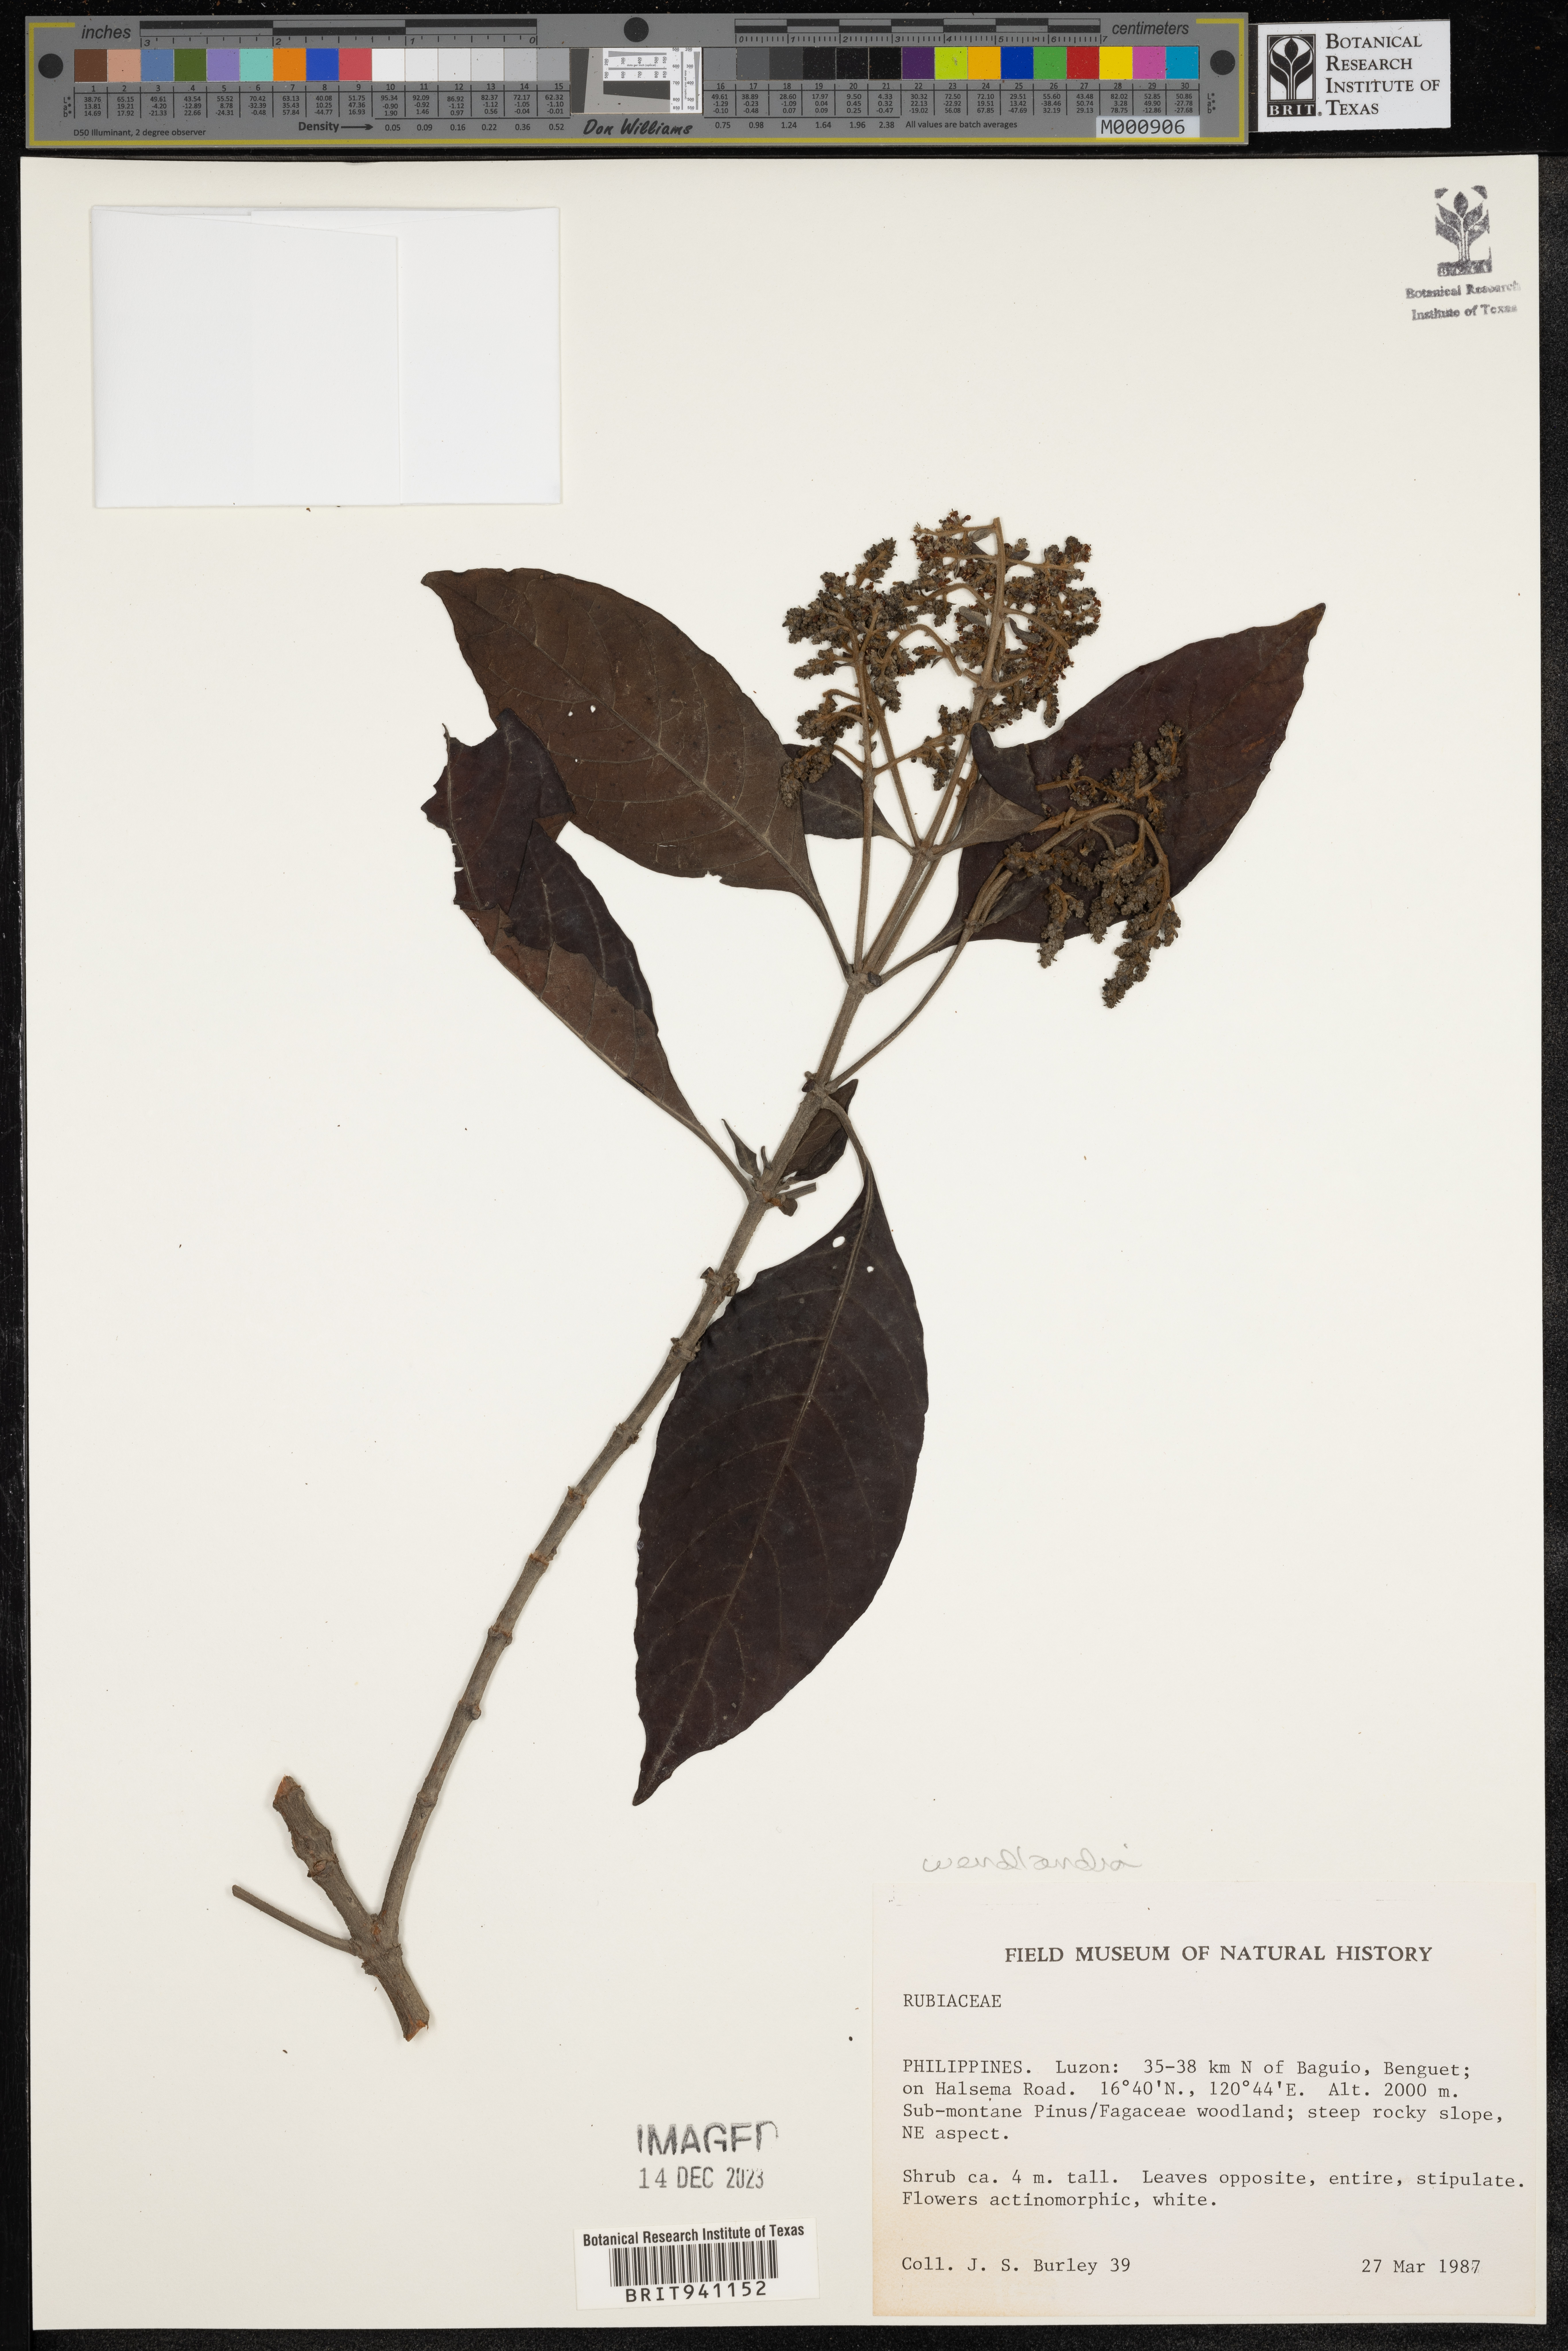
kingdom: Plantae
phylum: Tracheophyta
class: Magnoliopsida
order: Gentianales
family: Rubiaceae
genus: Wendlandia
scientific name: Wendlandia
